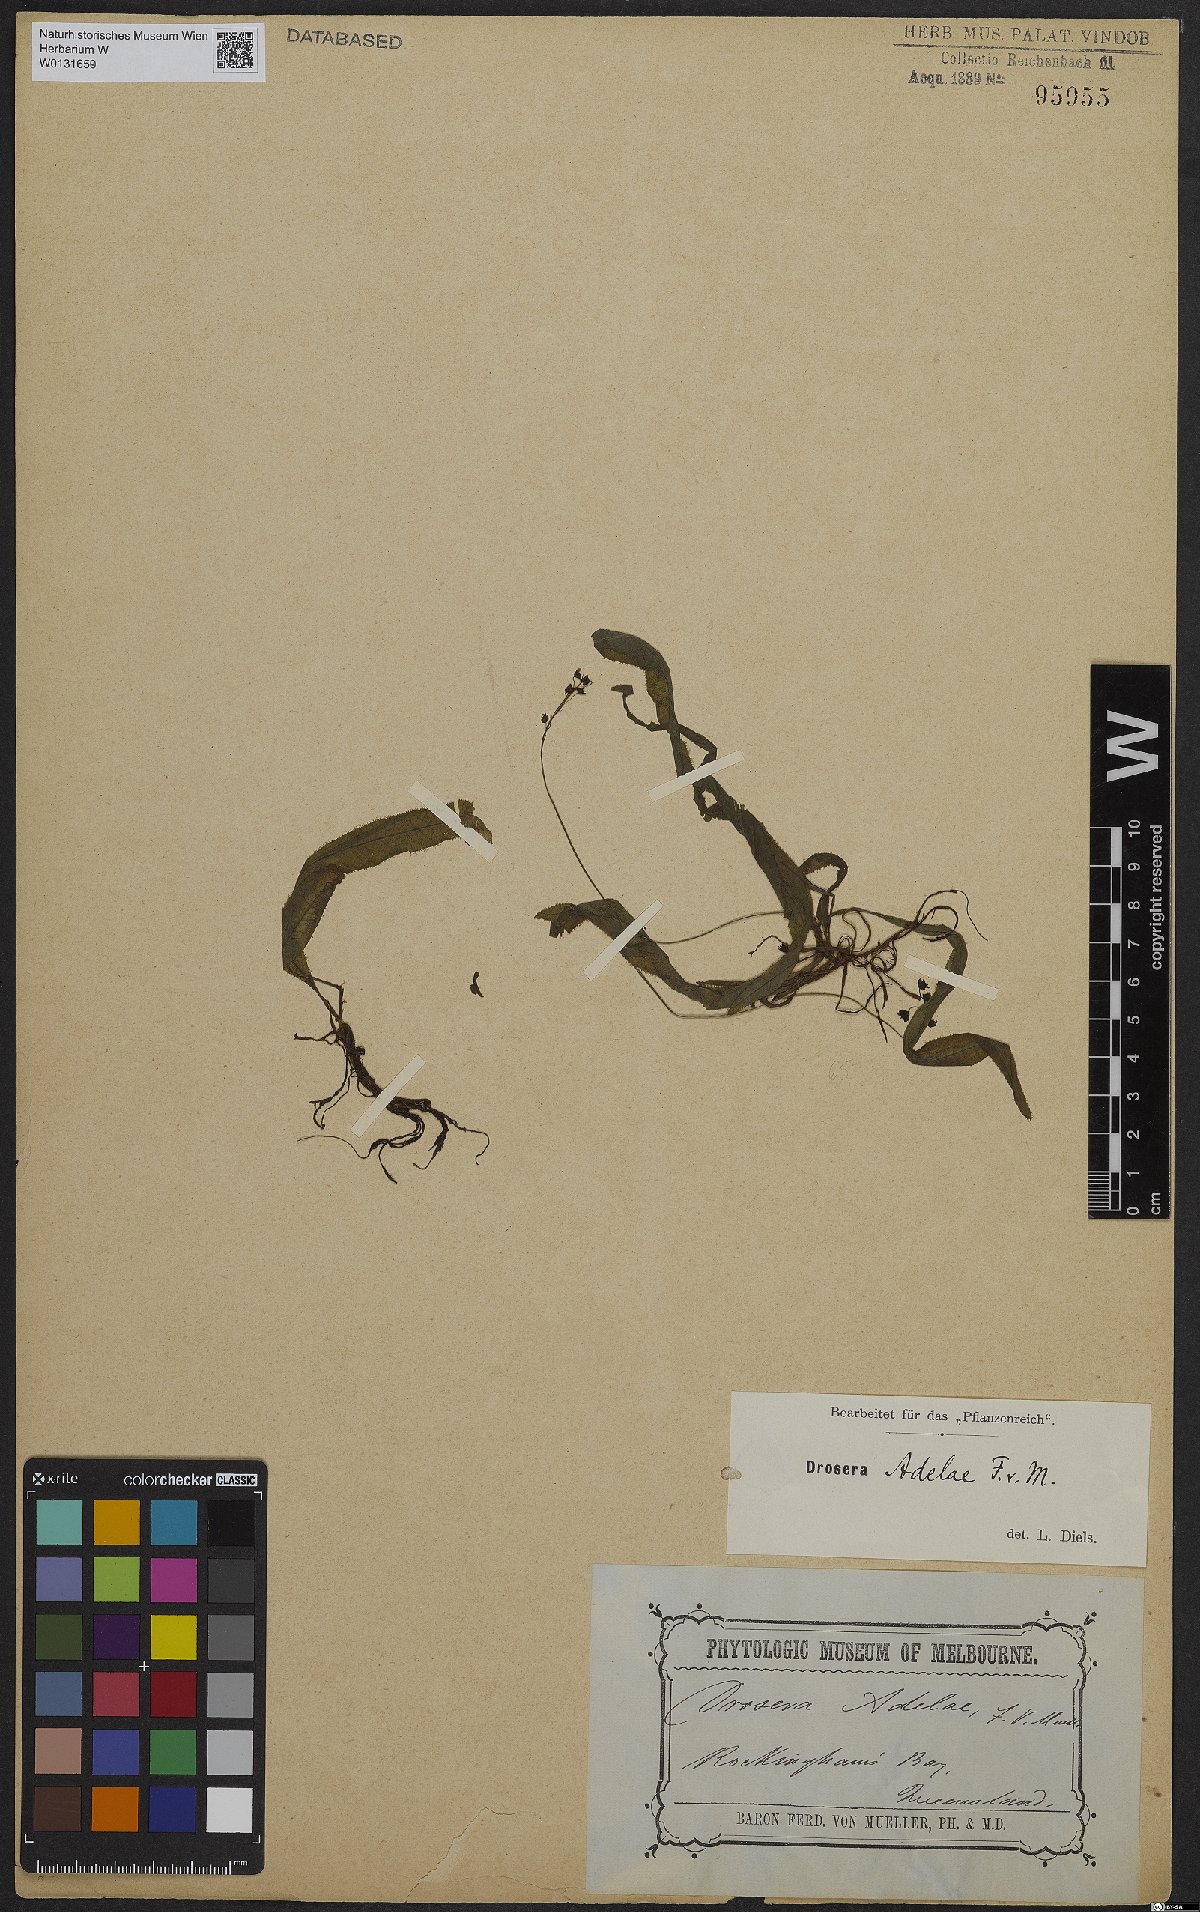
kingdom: Plantae
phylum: Tracheophyta
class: Magnoliopsida
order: Caryophyllales
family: Droseraceae
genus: Drosera
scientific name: Drosera adelae
